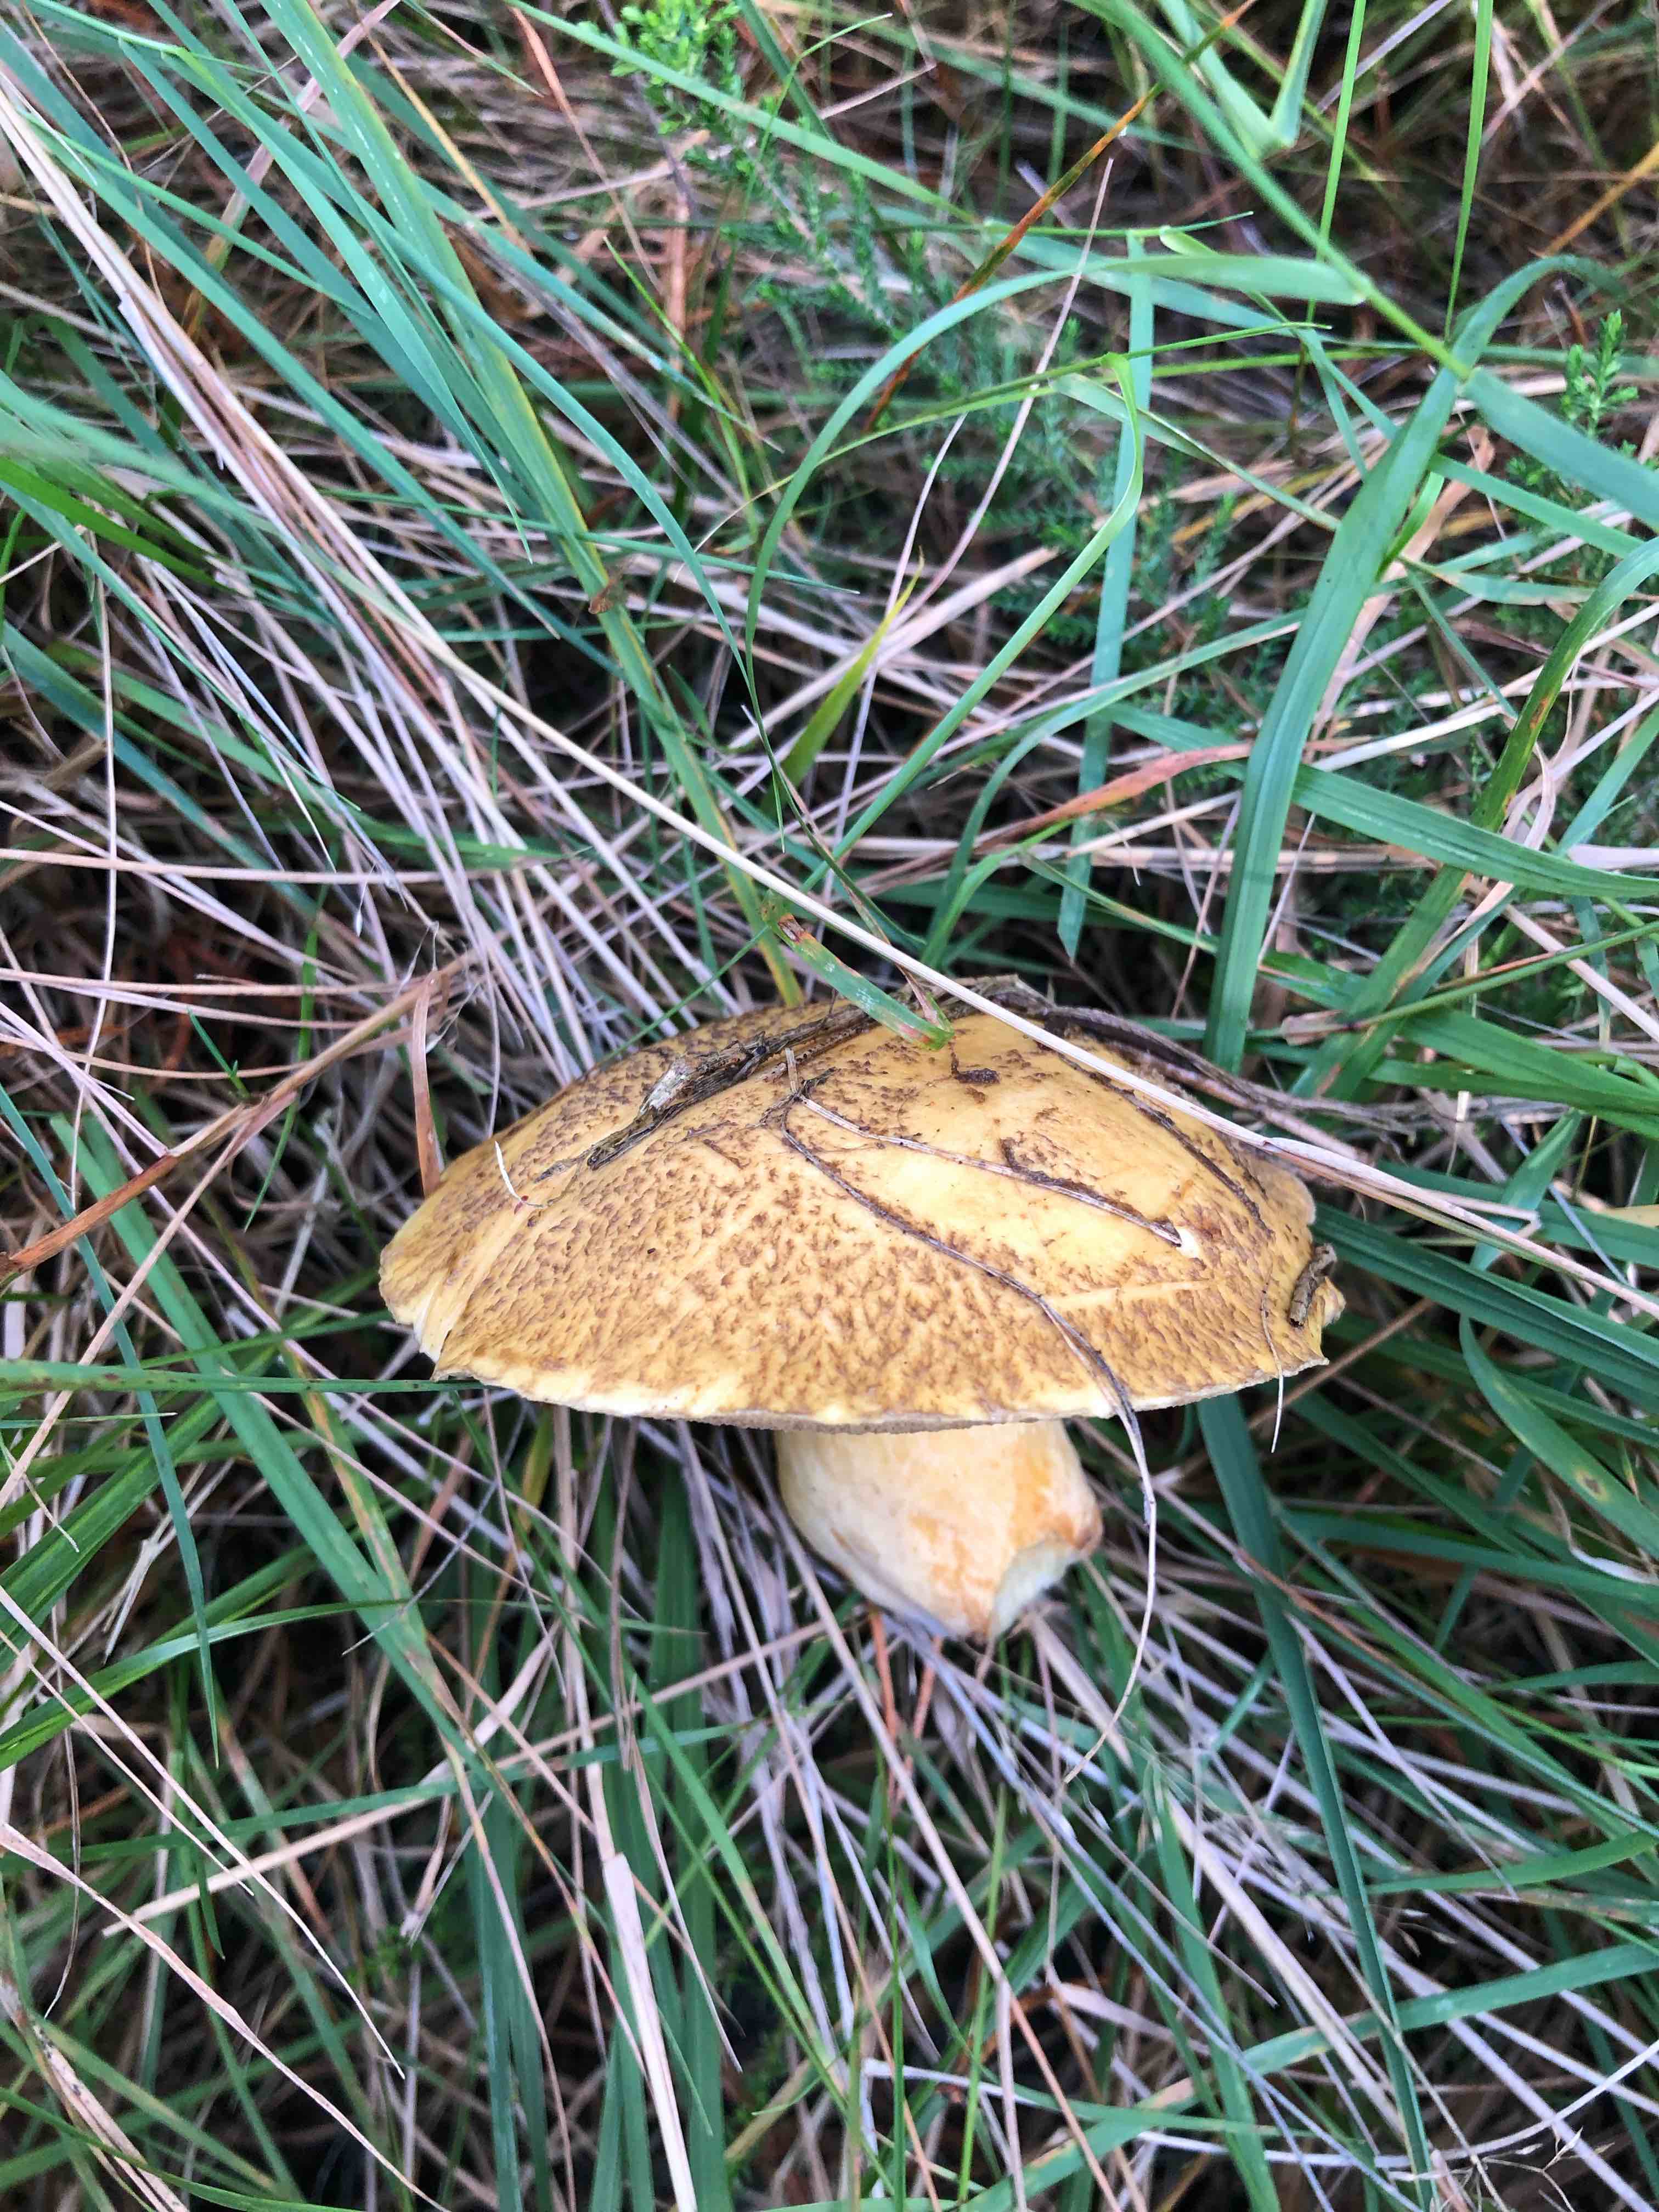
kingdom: Fungi
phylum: Basidiomycota
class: Agaricomycetes
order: Boletales
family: Suillaceae
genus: Suillus
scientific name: Suillus variegatus
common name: broget slimrørhat
